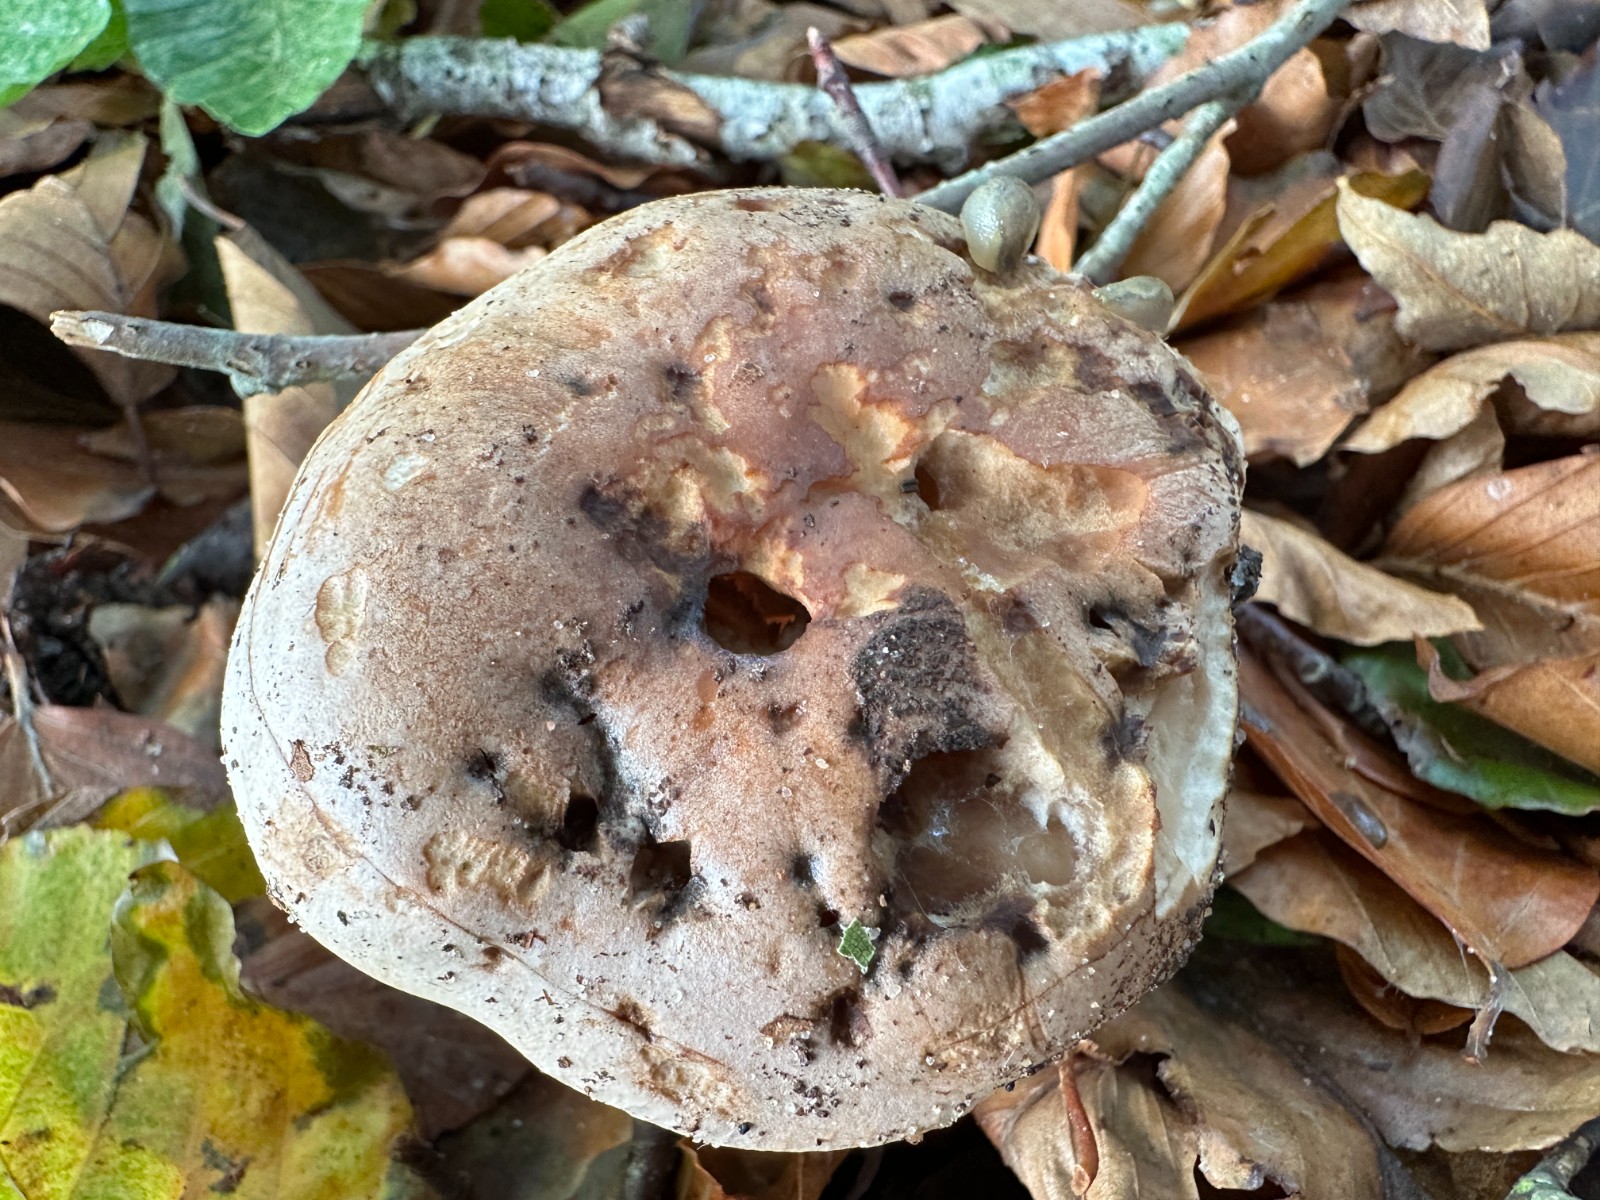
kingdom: Fungi
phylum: Basidiomycota
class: Agaricomycetes
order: Agaricales
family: Hymenogastraceae
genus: Hebeloma
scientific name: Hebeloma sinapizans
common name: ræddike-tåreblad
